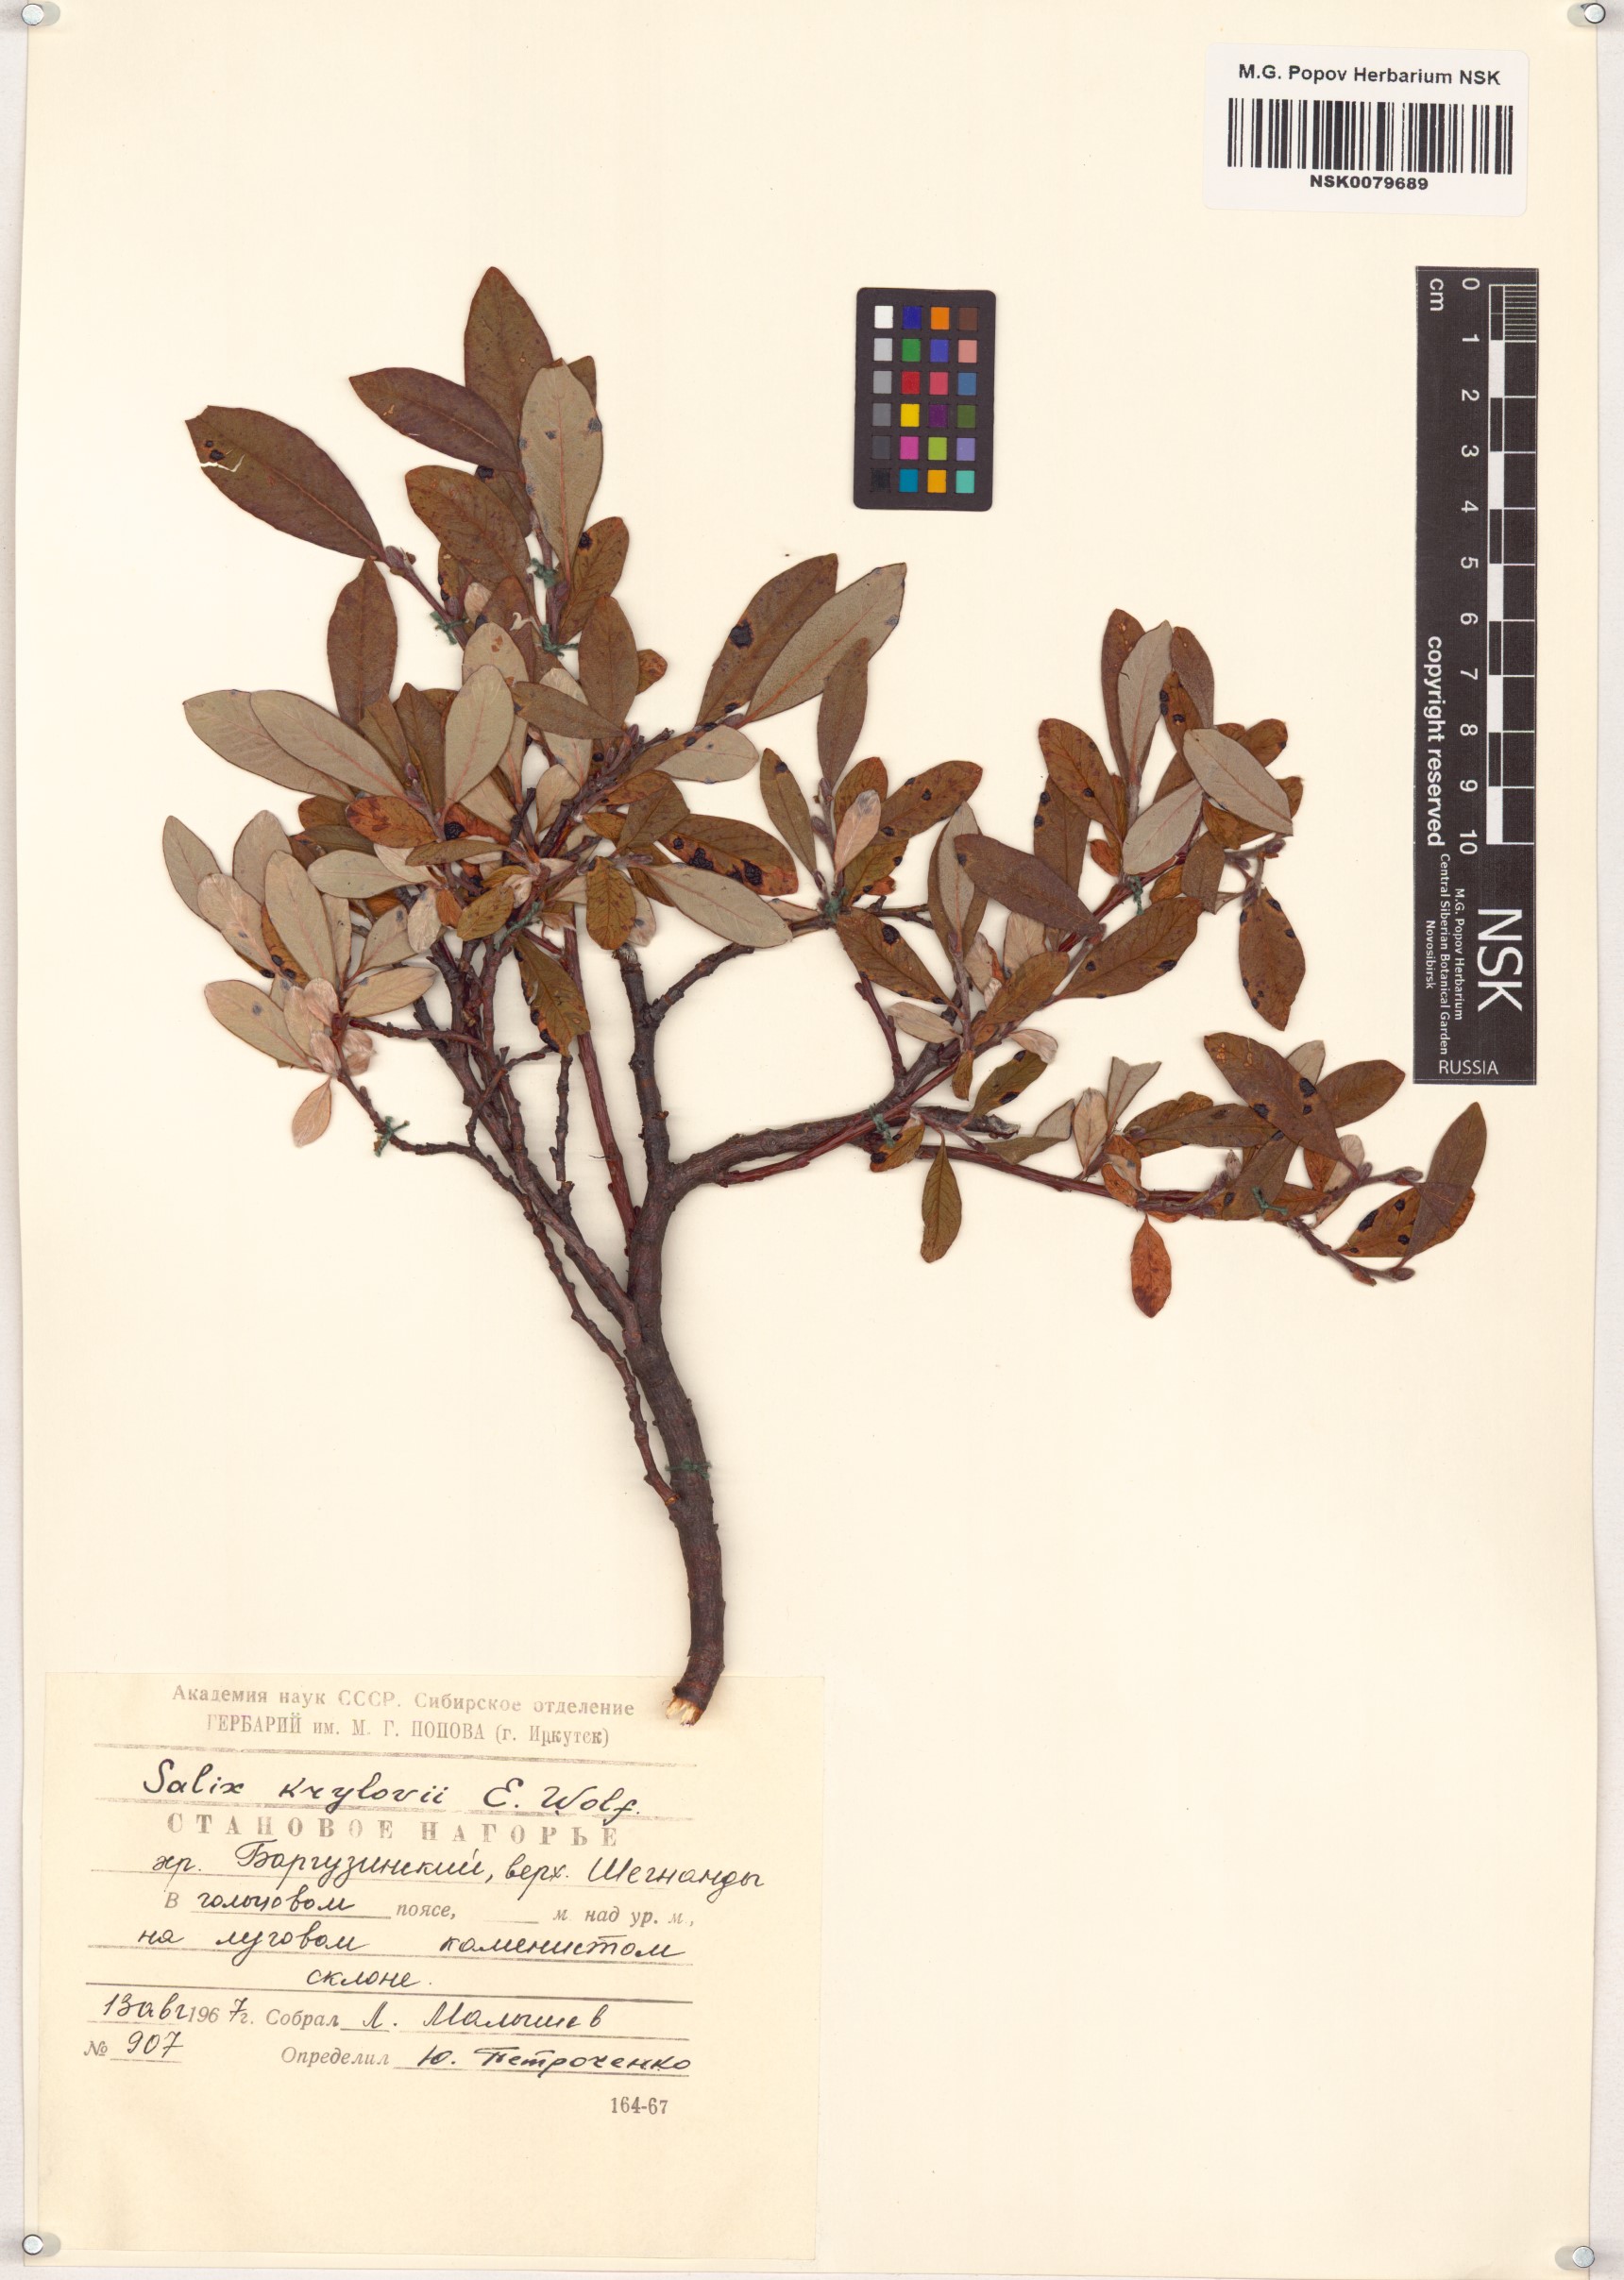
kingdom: Plantae
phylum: Tracheophyta
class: Magnoliopsida
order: Malpighiales
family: Salicaceae
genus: Salix
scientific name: Salix krylovii
